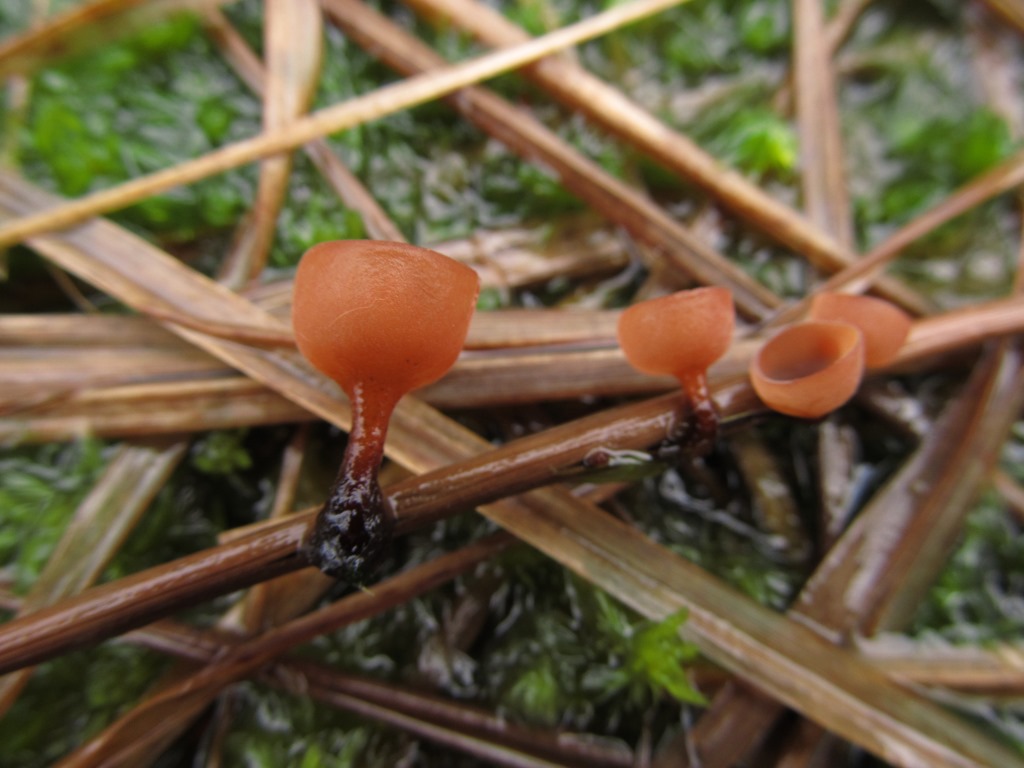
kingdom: Fungi
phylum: Ascomycota
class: Leotiomycetes
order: Helotiales
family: Sclerotiniaceae
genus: Myriosclerotinia
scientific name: Myriosclerotinia dennisii
